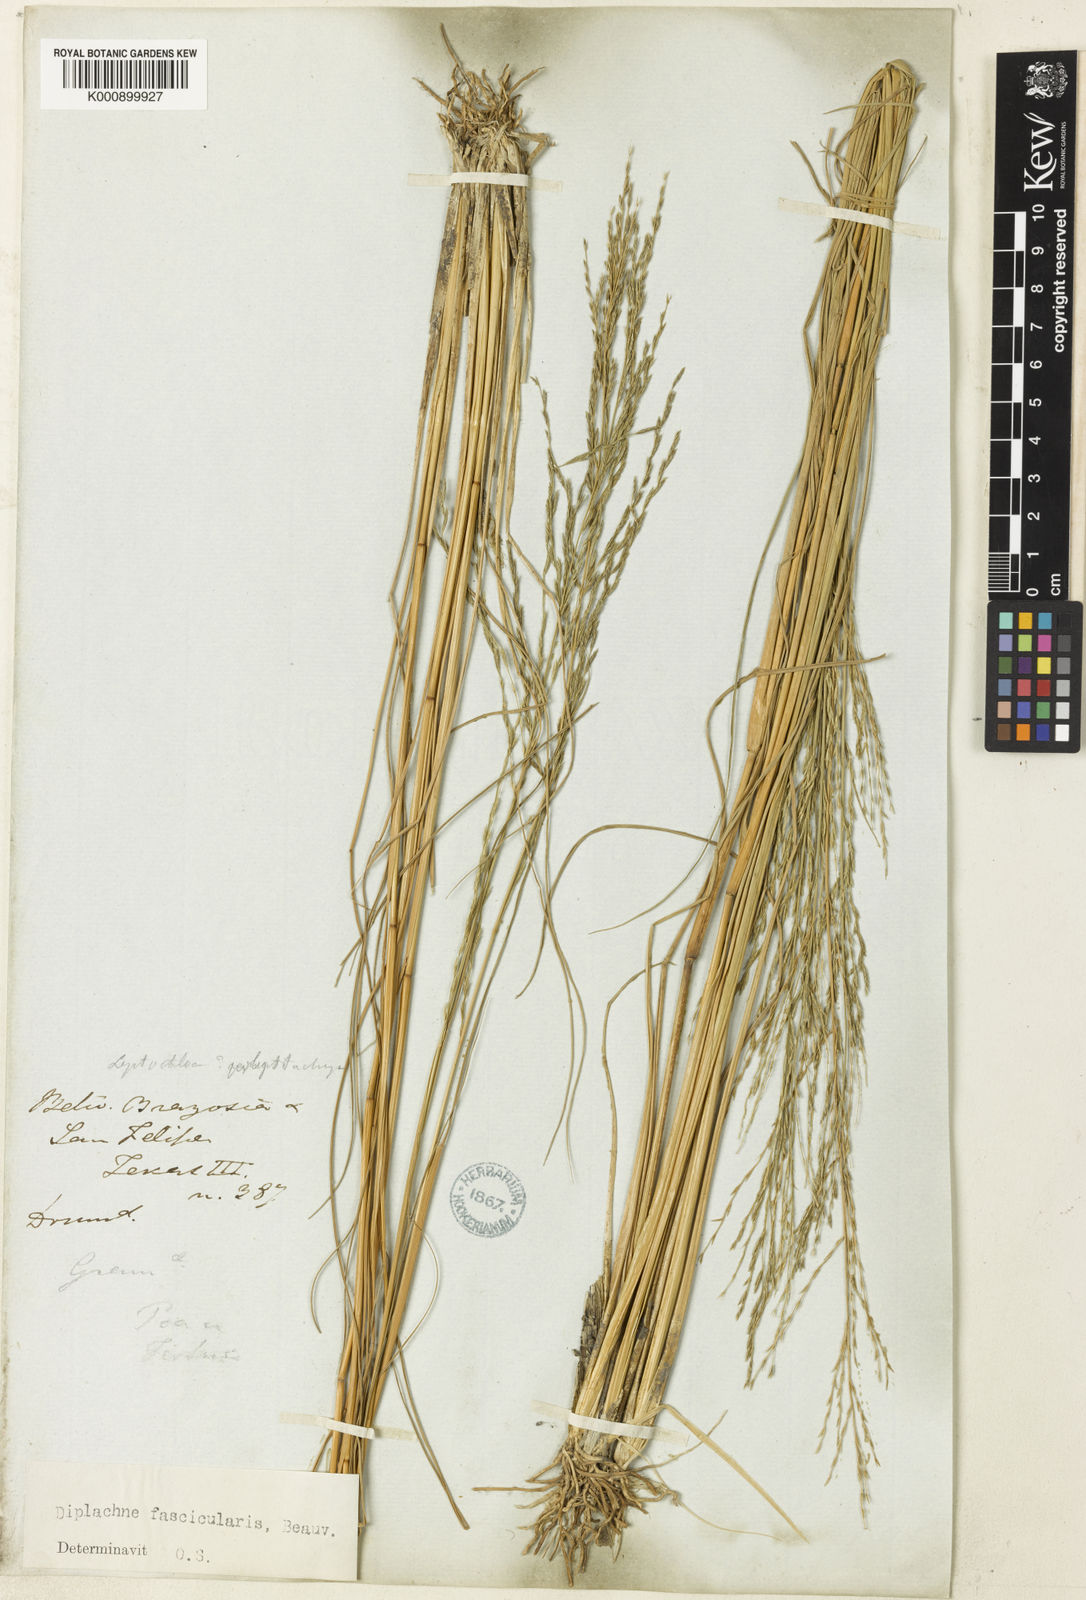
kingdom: Plantae
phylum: Tracheophyta
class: Liliopsida
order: Poales
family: Poaceae
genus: Diplachne
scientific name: Diplachne fusca
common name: Brown beetle grass
